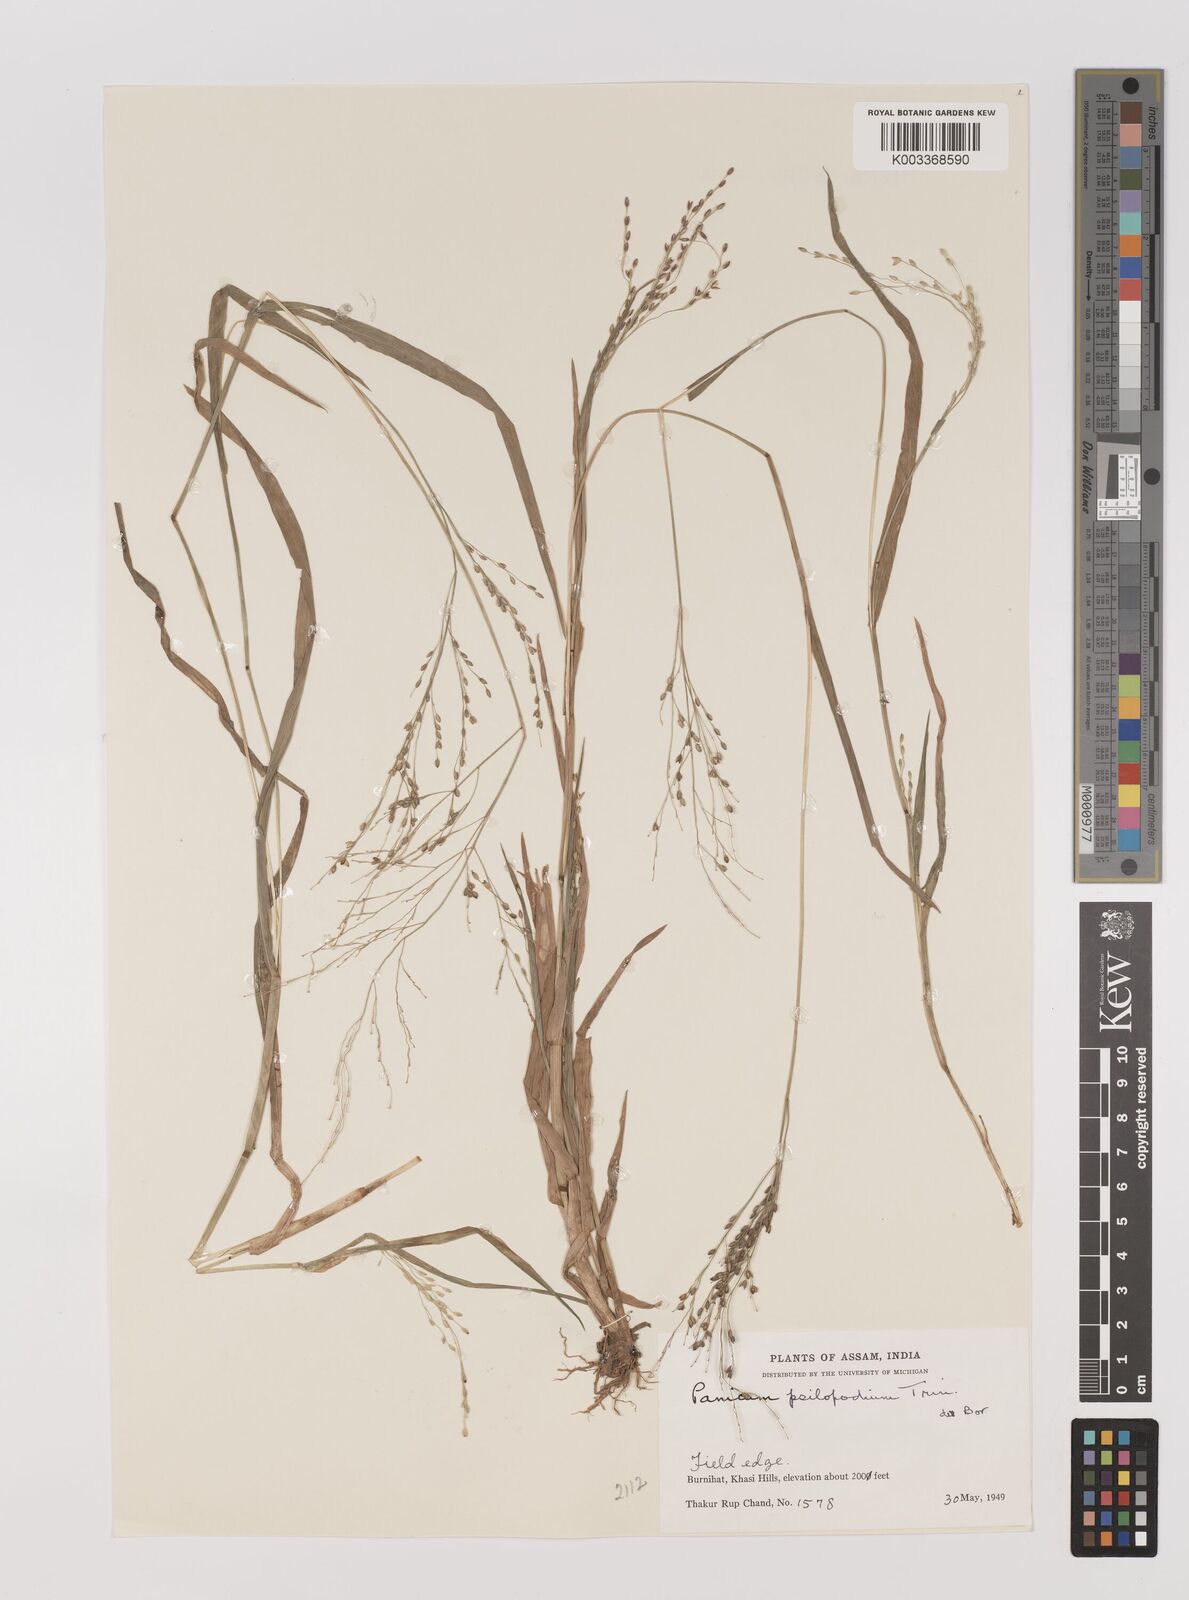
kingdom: Plantae
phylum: Tracheophyta
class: Liliopsida
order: Poales
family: Poaceae
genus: Panicum
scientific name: Panicum sumatrense
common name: Little millet
